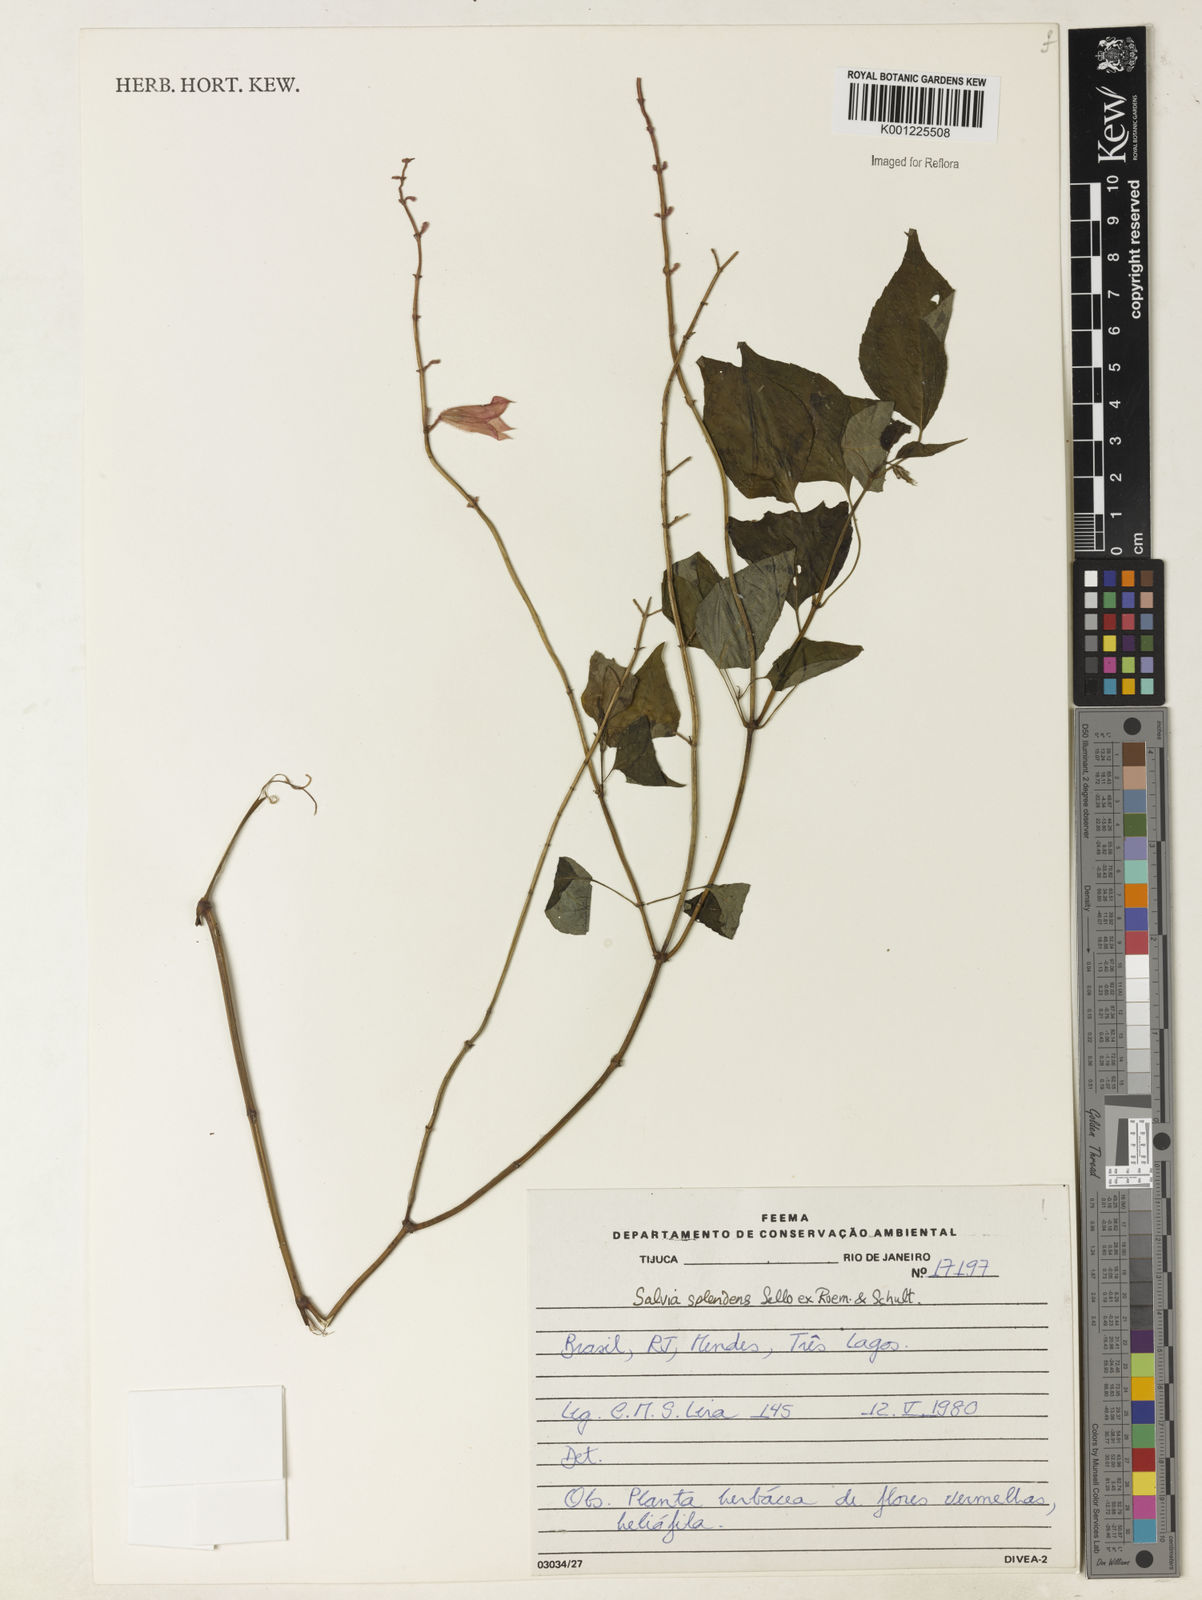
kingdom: Plantae
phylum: Tracheophyta
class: Magnoliopsida
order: Lamiales
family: Lamiaceae
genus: Salvia
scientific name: Salvia
